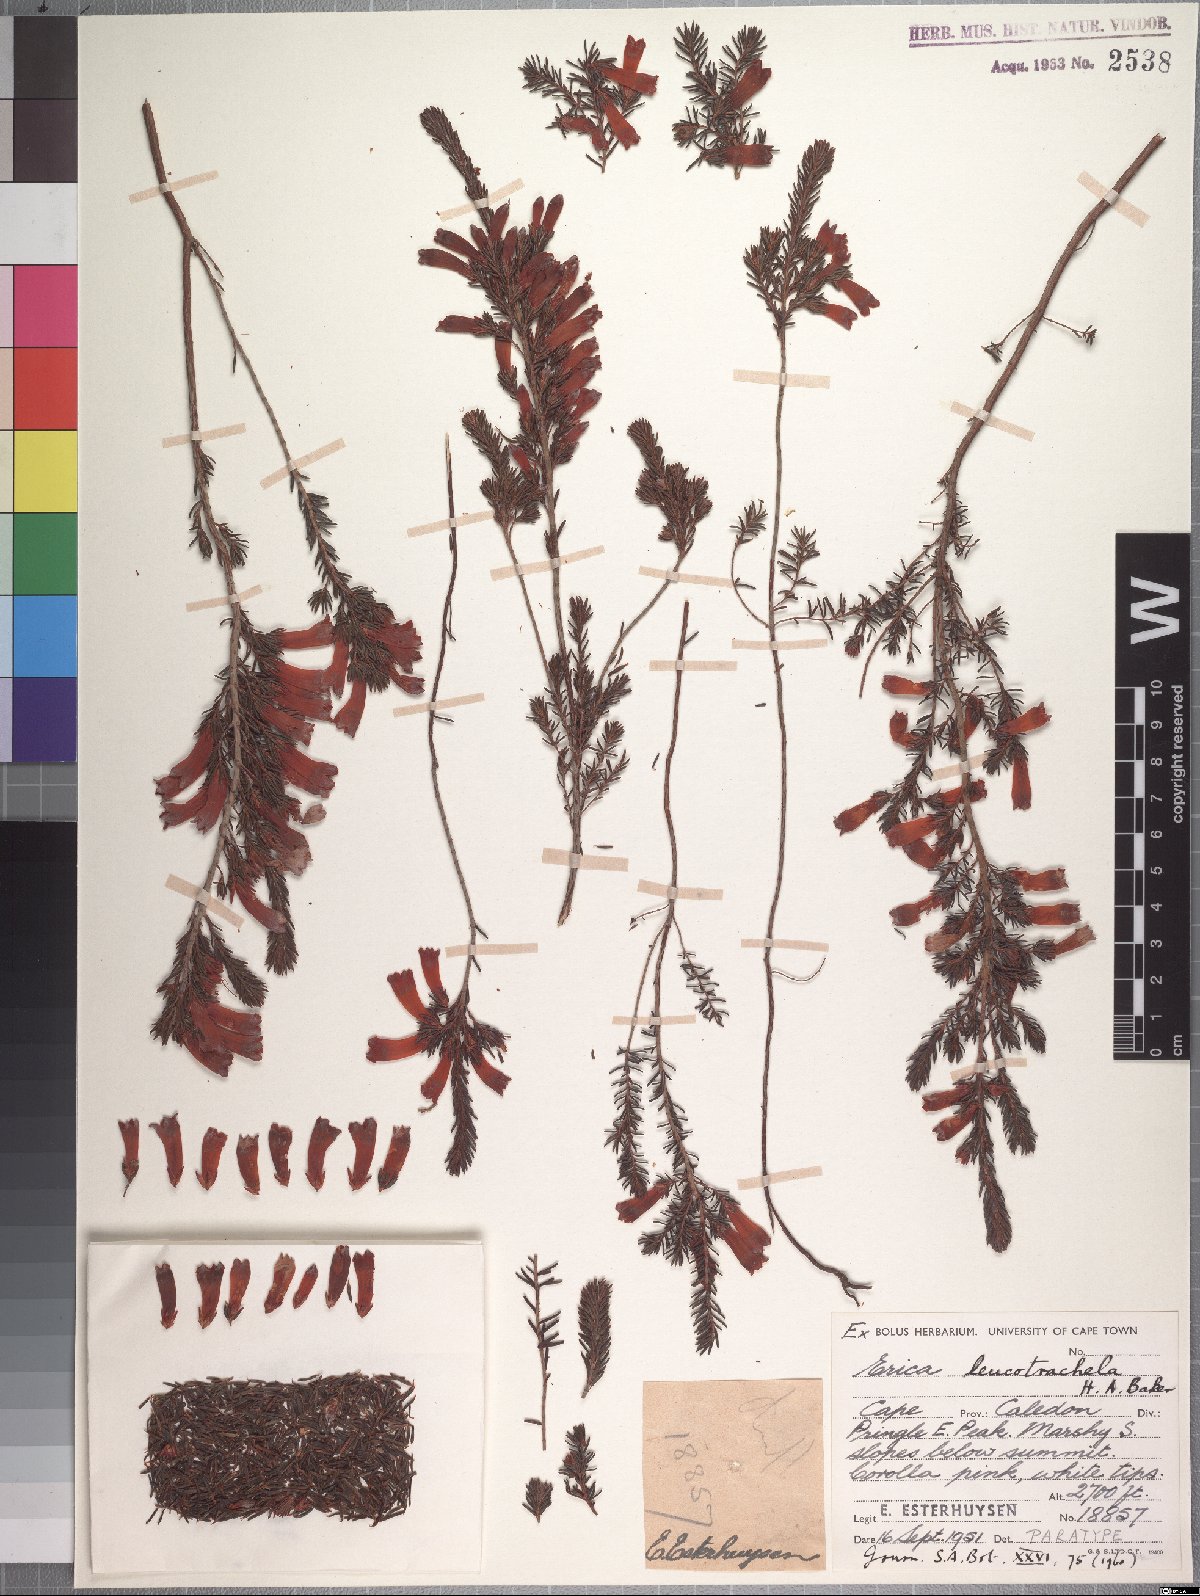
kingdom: Plantae
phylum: Tracheophyta
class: Magnoliopsida
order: Ericales
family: Ericaceae
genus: Erica
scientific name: Erica leucotrachela
